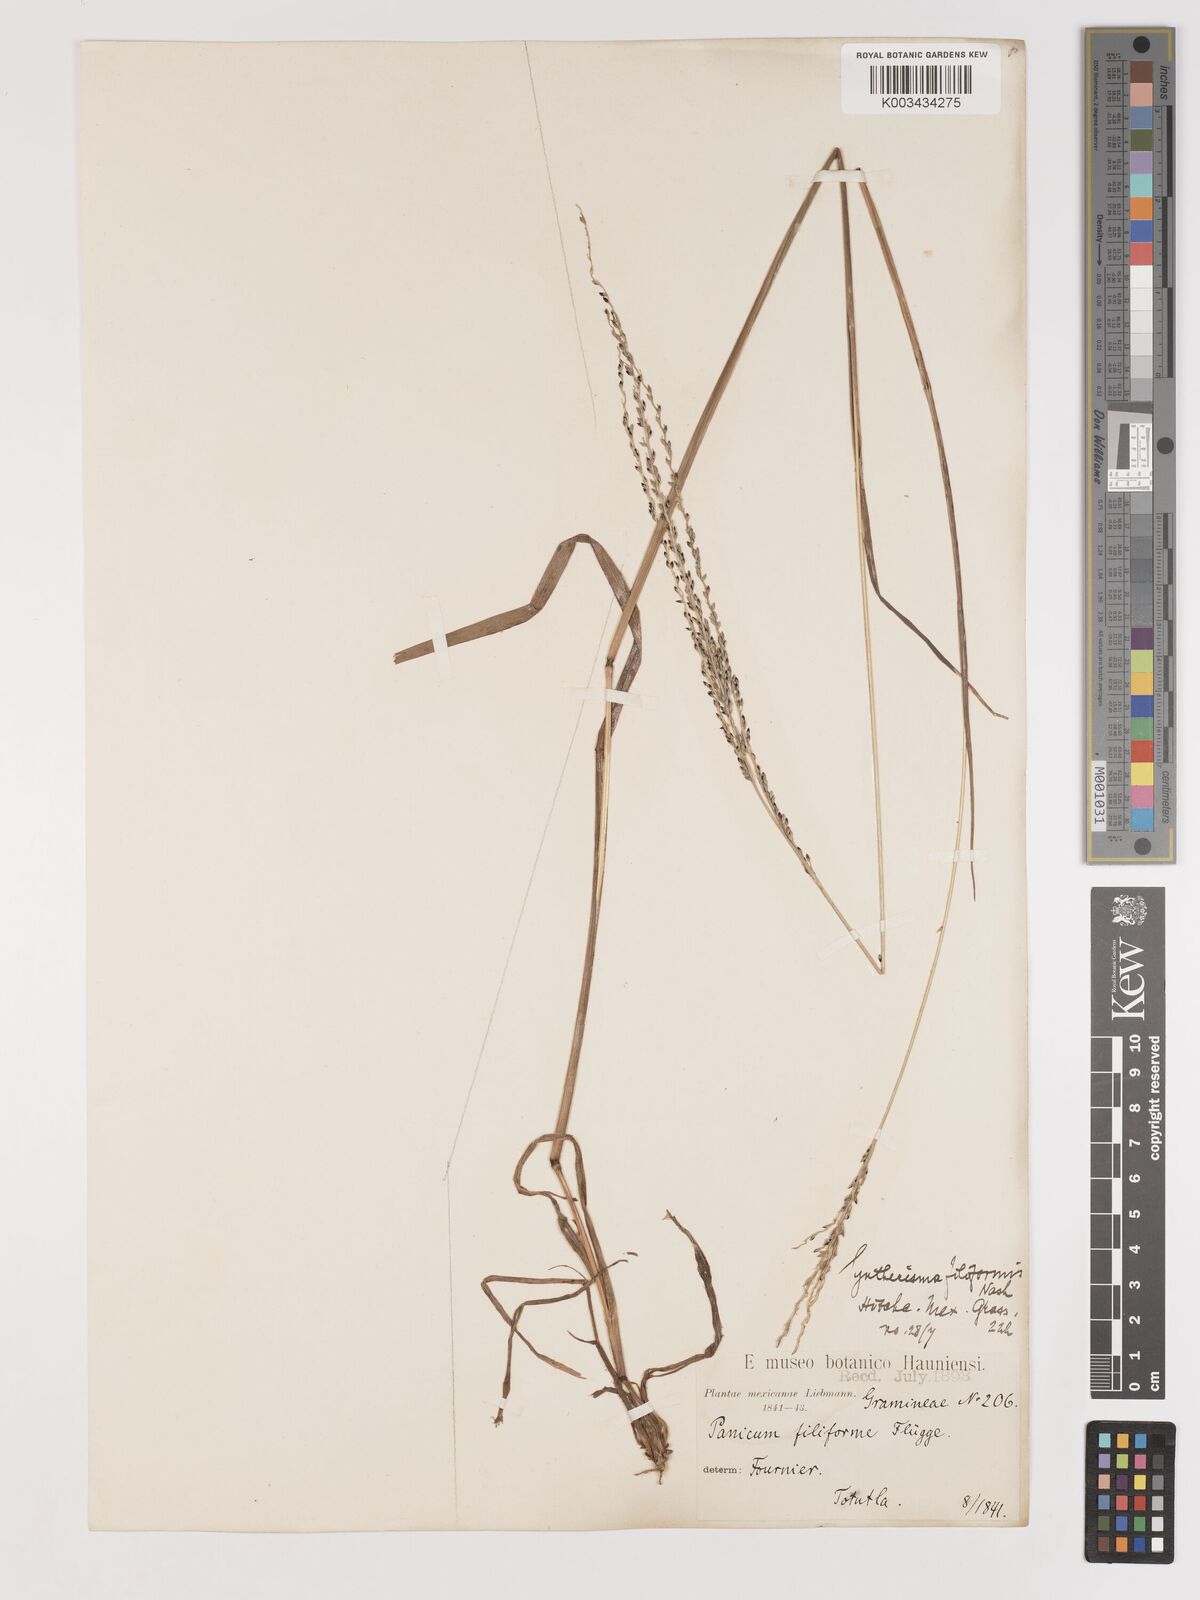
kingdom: Plantae
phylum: Tracheophyta
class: Liliopsida
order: Poales
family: Poaceae
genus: Digitaria
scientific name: Digitaria filiformis
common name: Slender crabgrass
